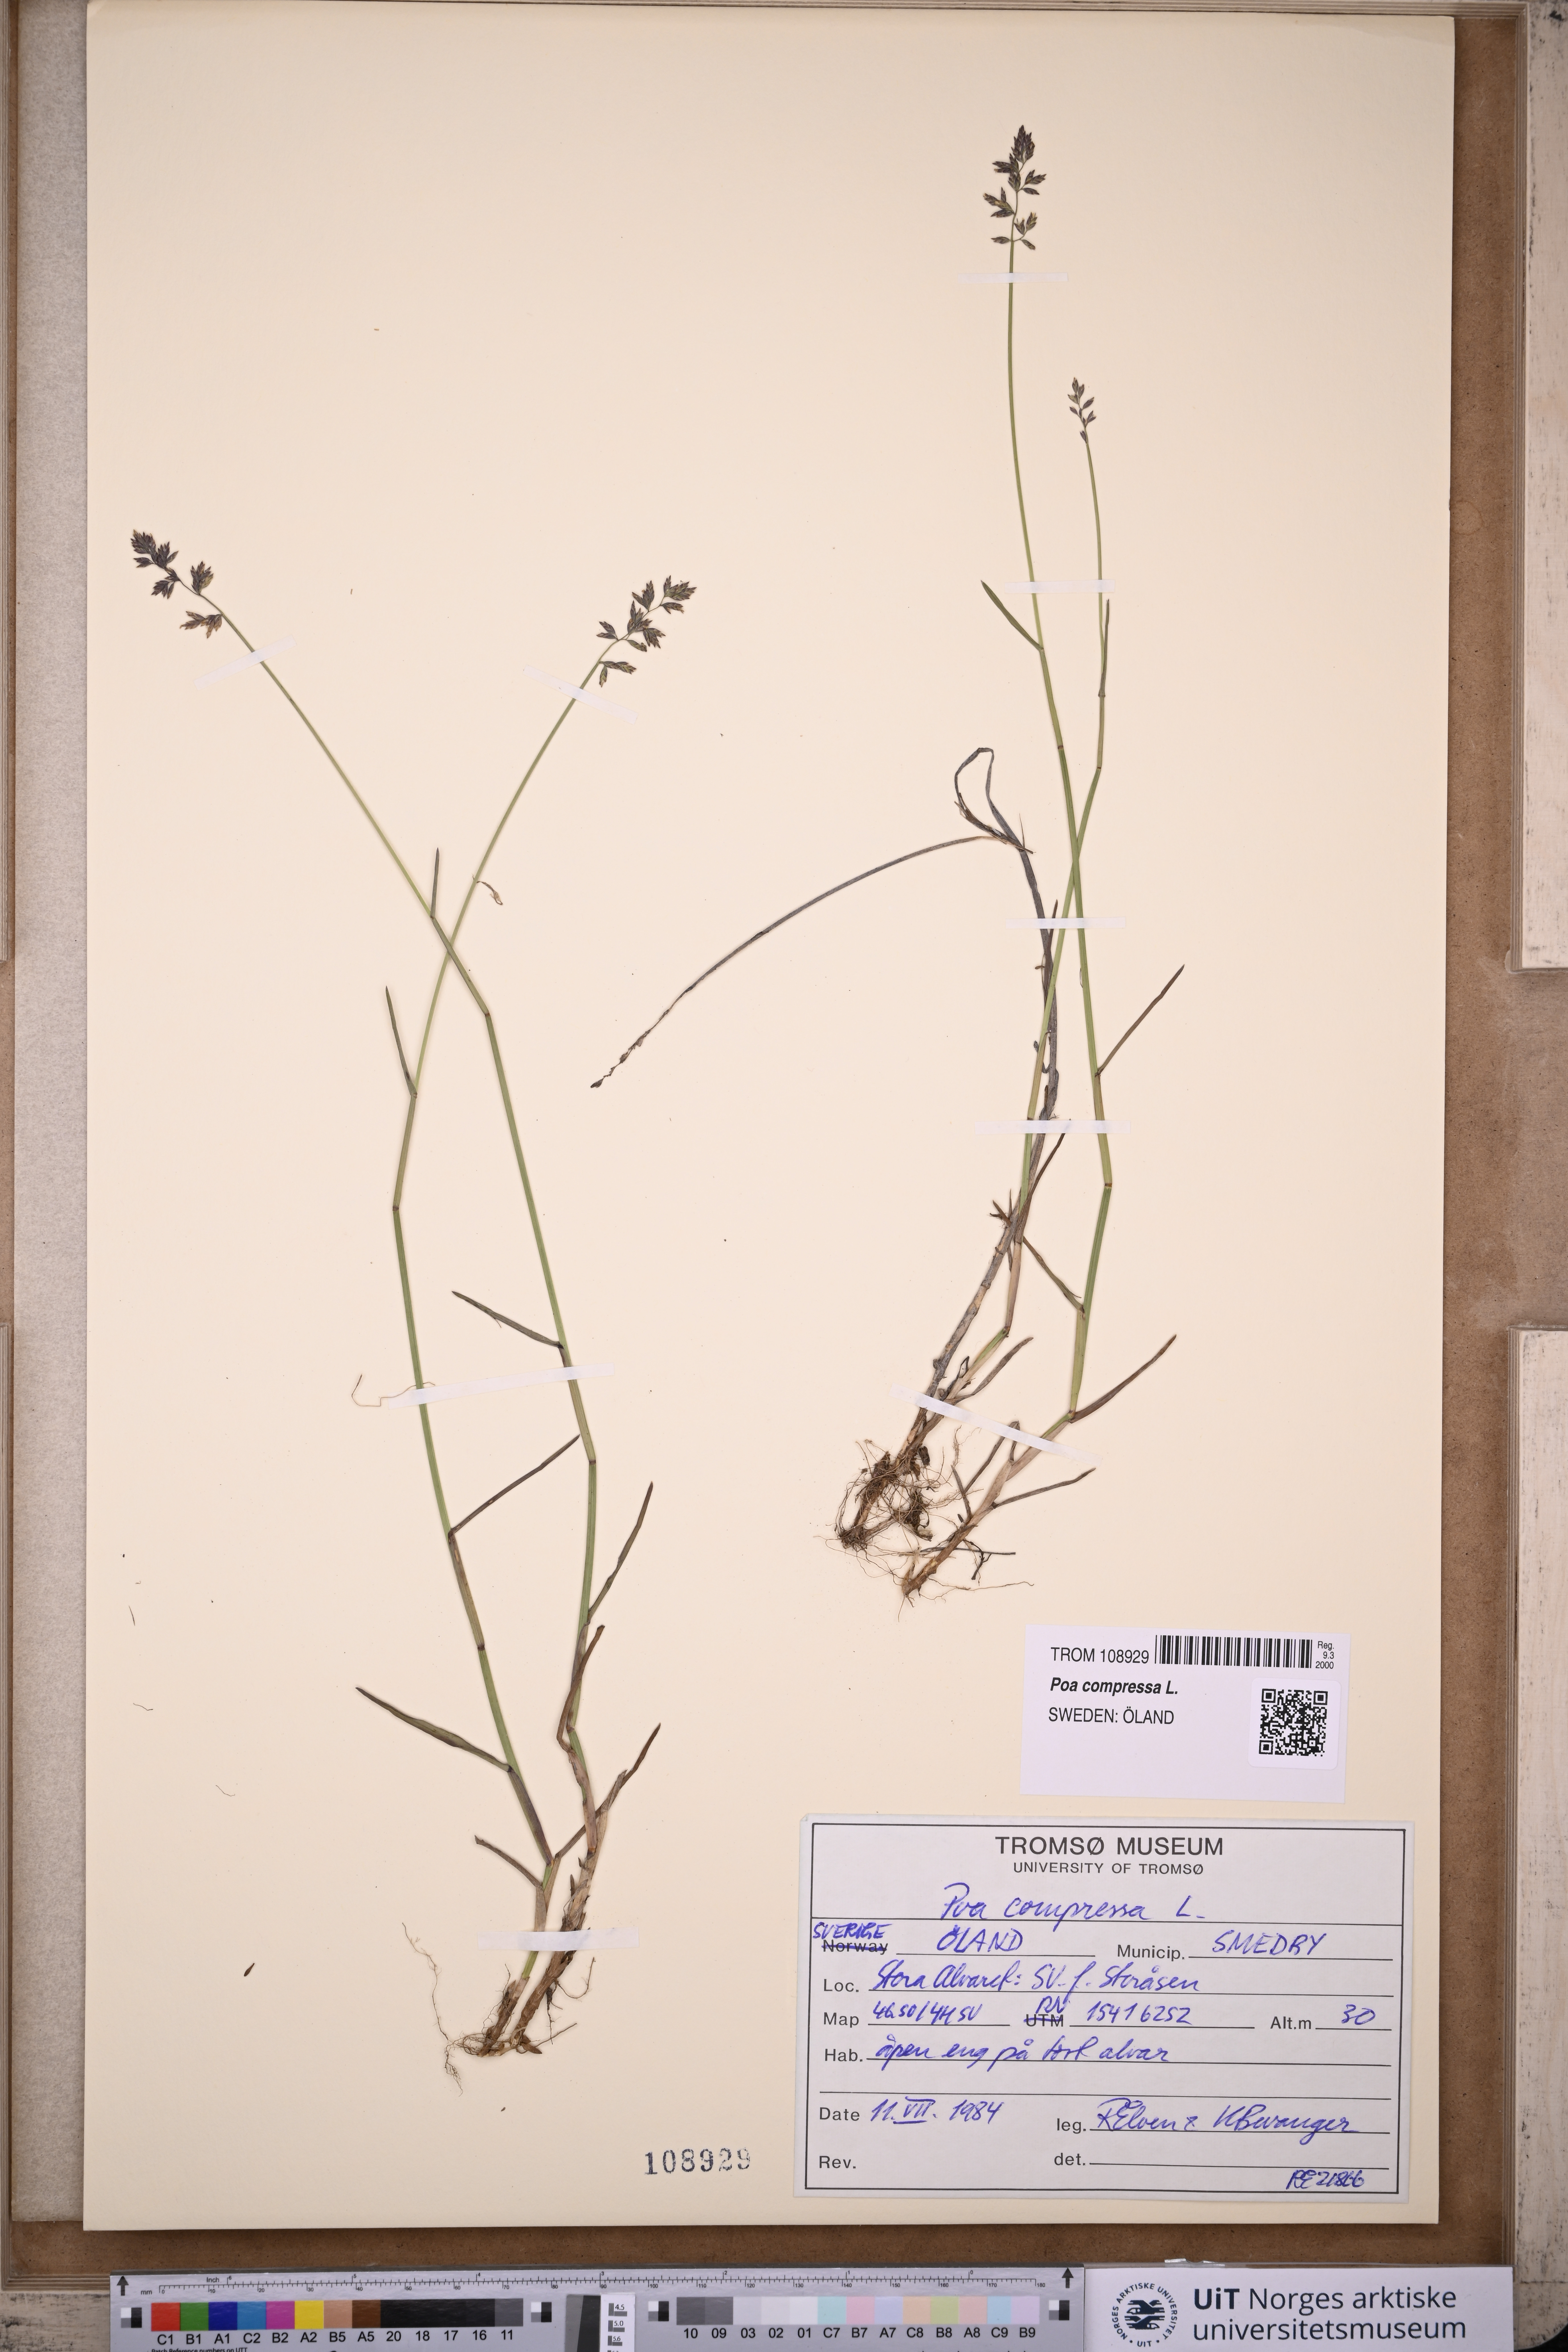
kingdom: Plantae
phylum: Tracheophyta
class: Liliopsida
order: Poales
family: Poaceae
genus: Poa
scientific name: Poa compressa
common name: Canada bluegrass
